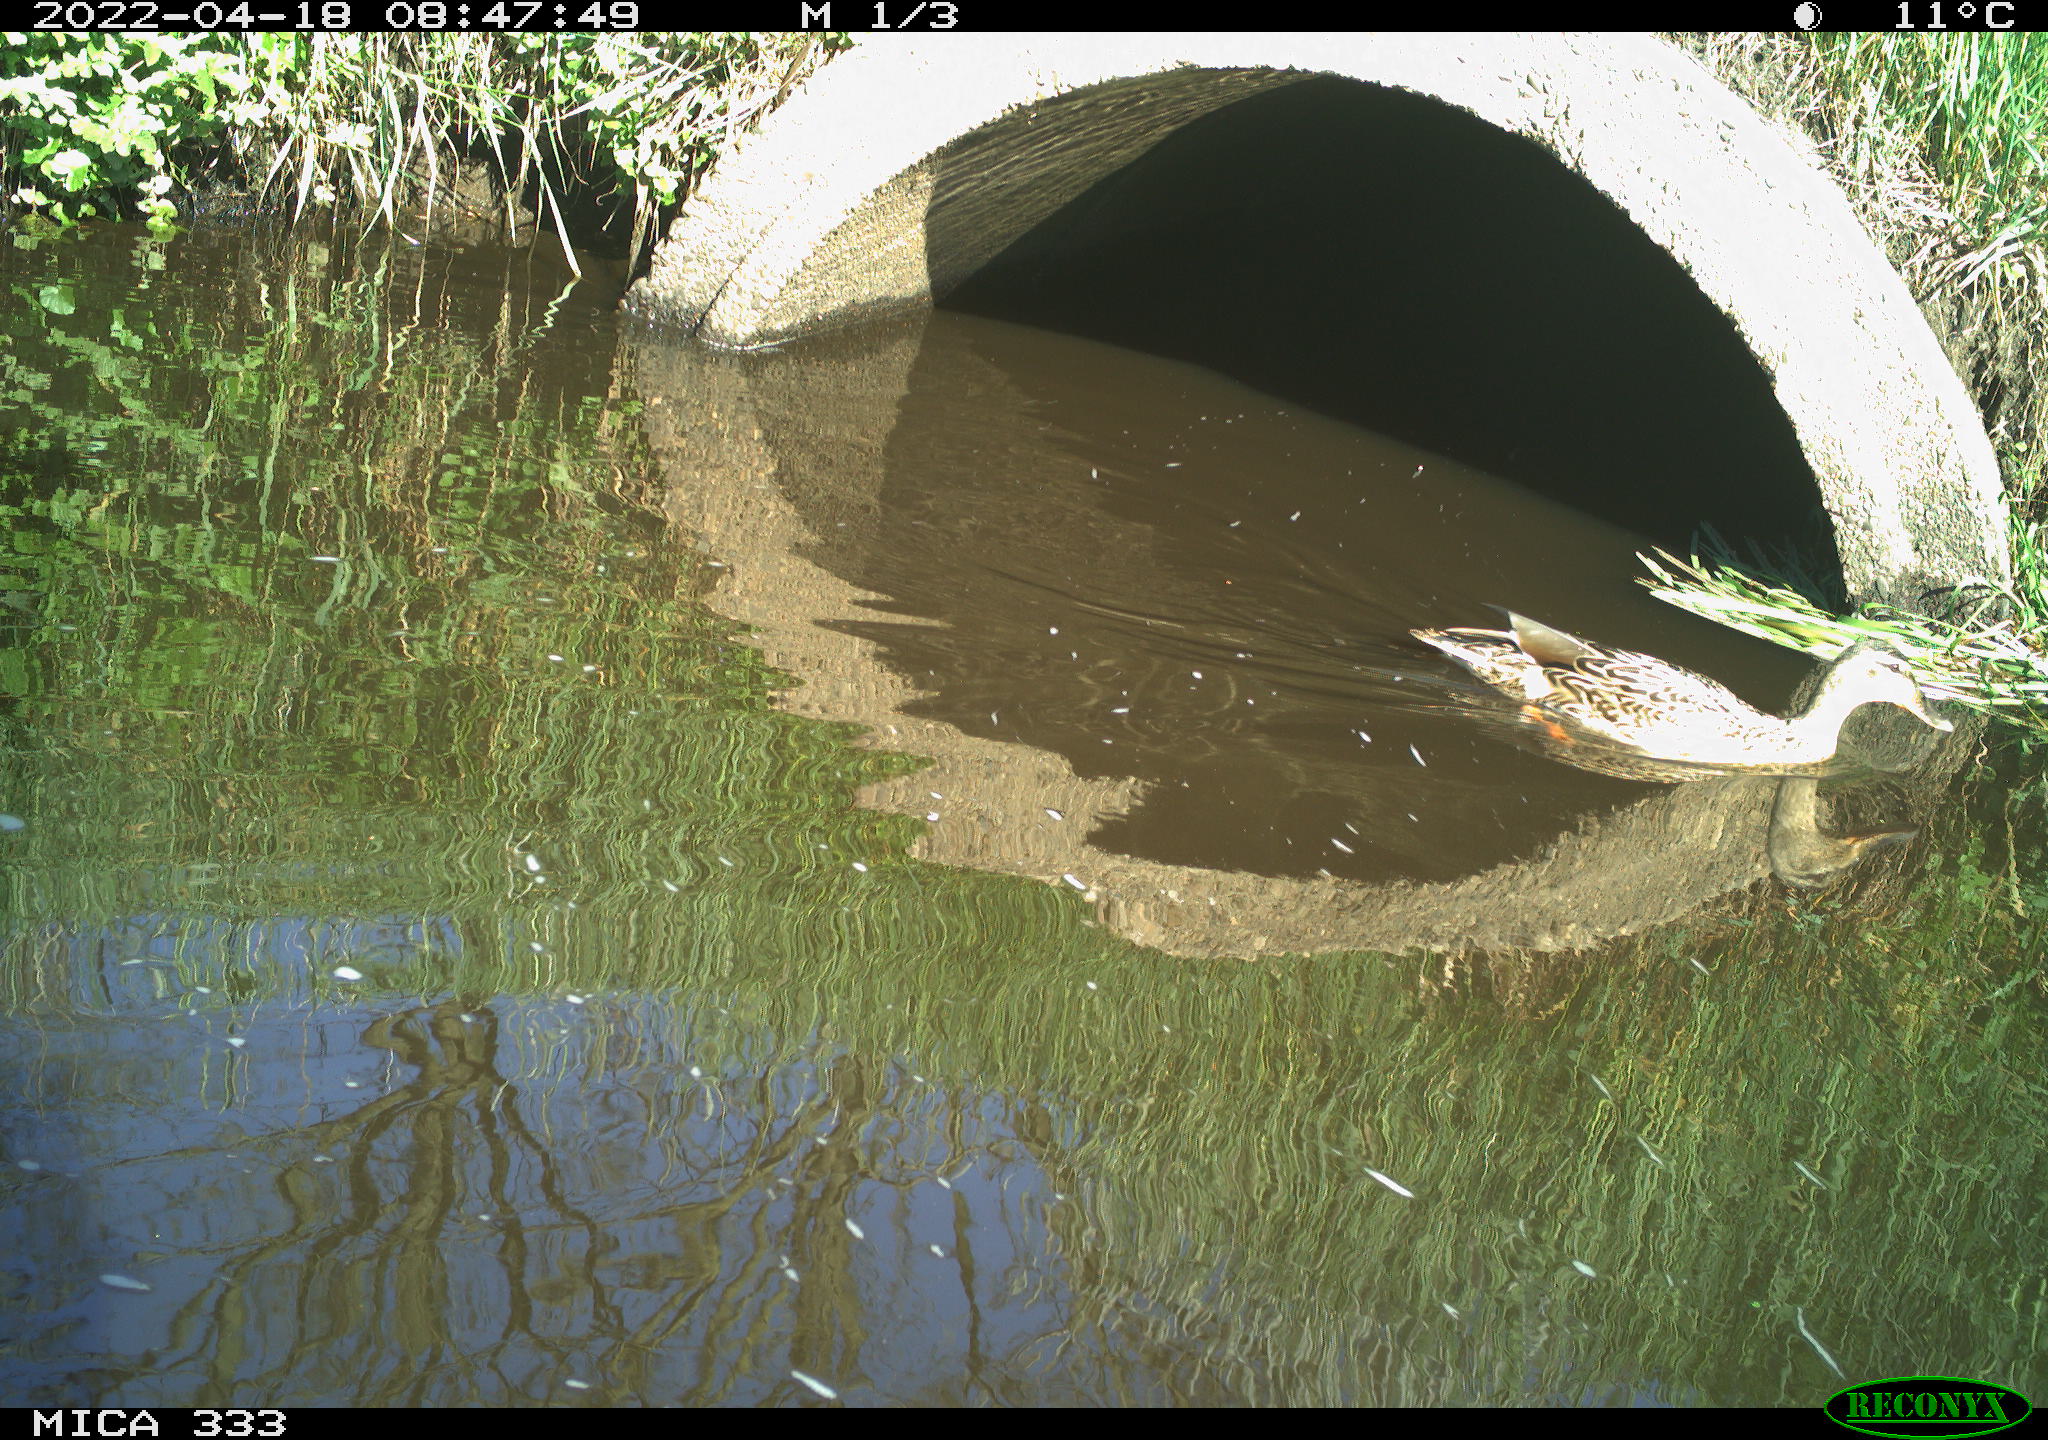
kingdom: Animalia
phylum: Chordata
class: Aves
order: Anseriformes
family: Anatidae
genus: Anas
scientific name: Anas platyrhynchos
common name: Mallard
